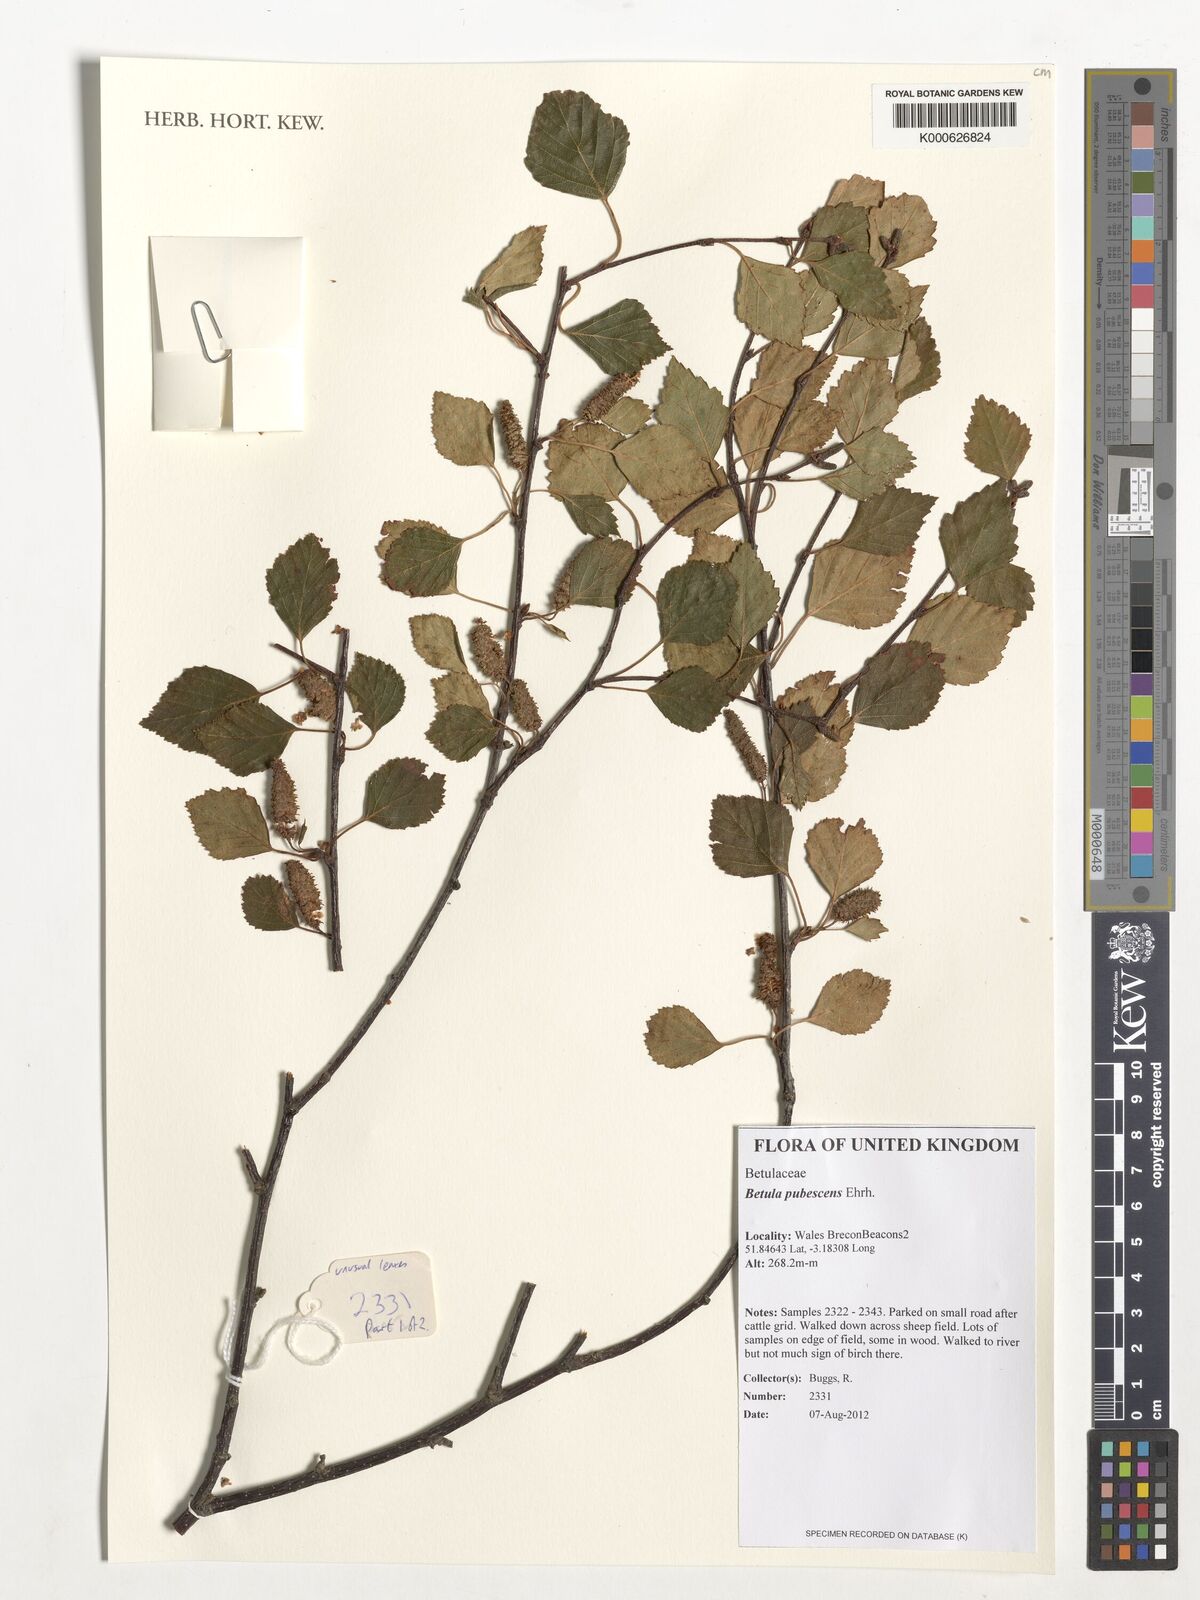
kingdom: Plantae
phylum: Tracheophyta
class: Magnoliopsida
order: Fagales
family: Betulaceae
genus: Betula
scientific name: Betula pubescens
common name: Downy birch
